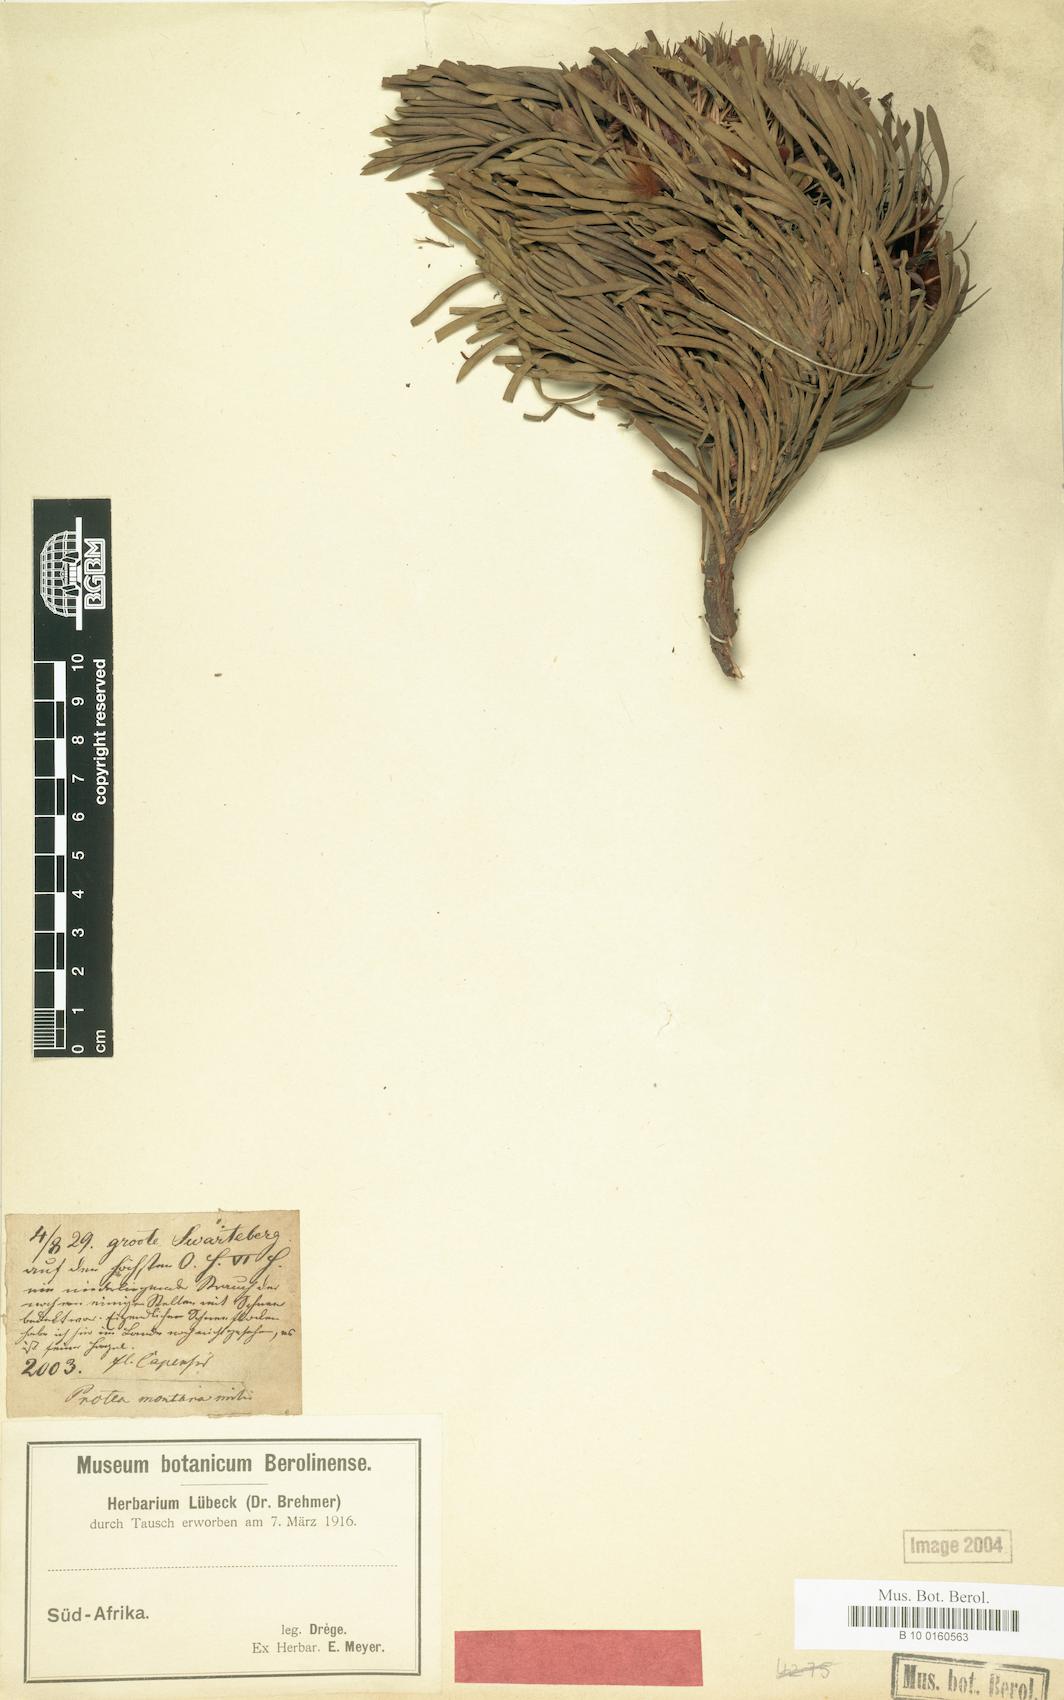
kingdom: Plantae
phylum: Tracheophyta
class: Magnoliopsida
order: Proteales
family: Proteaceae
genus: Protea
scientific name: Protea montana
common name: Swartberg sugarbush
